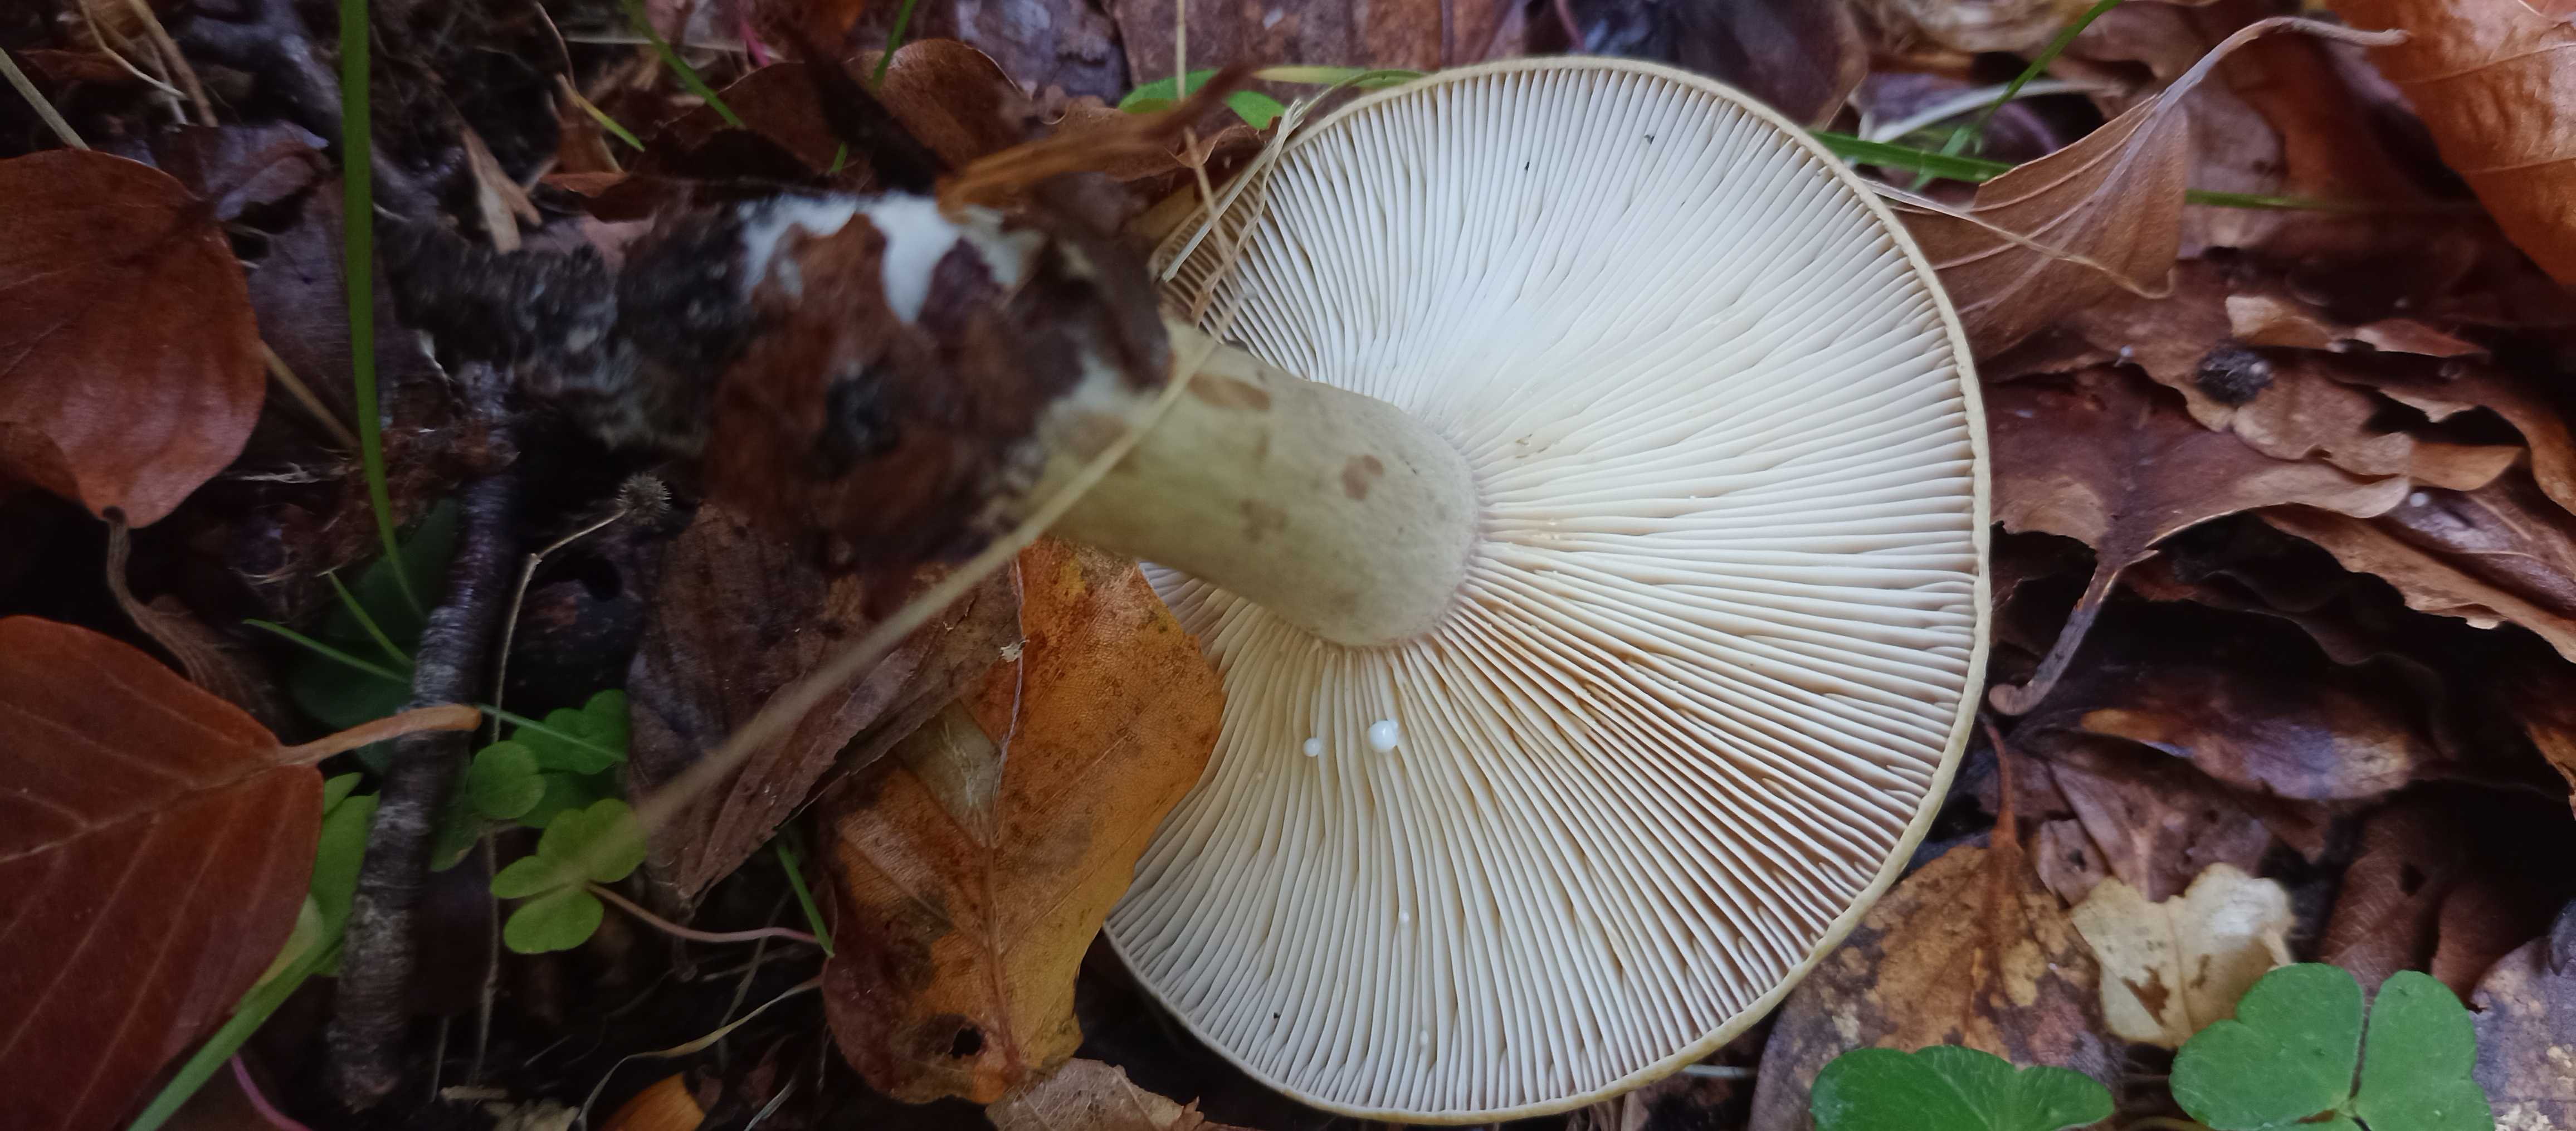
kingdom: Fungi
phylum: Basidiomycota
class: Agaricomycetes
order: Russulales
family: Russulaceae
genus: Lactarius
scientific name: Lactarius blennius
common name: dråbeplettet mælkehat
